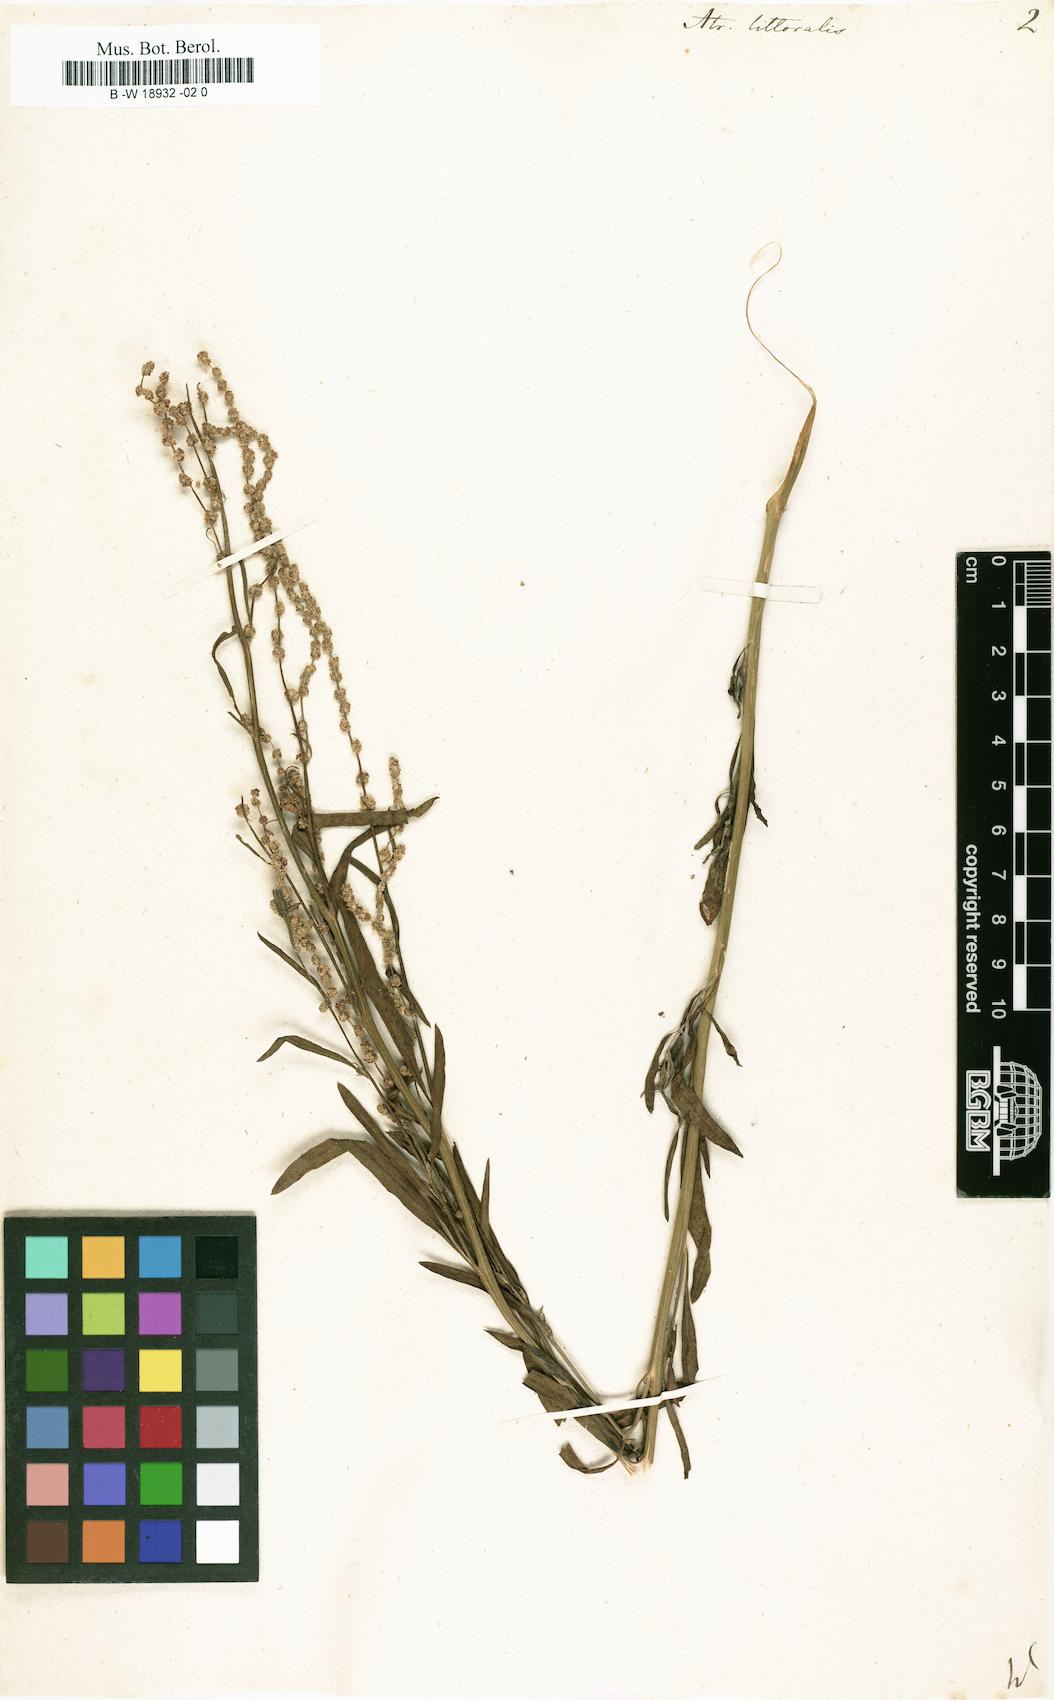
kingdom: Plantae
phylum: Tracheophyta
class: Magnoliopsida
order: Caryophyllales
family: Amaranthaceae
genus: Atriplex
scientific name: Atriplex littoralis
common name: Grass-leaved orache
